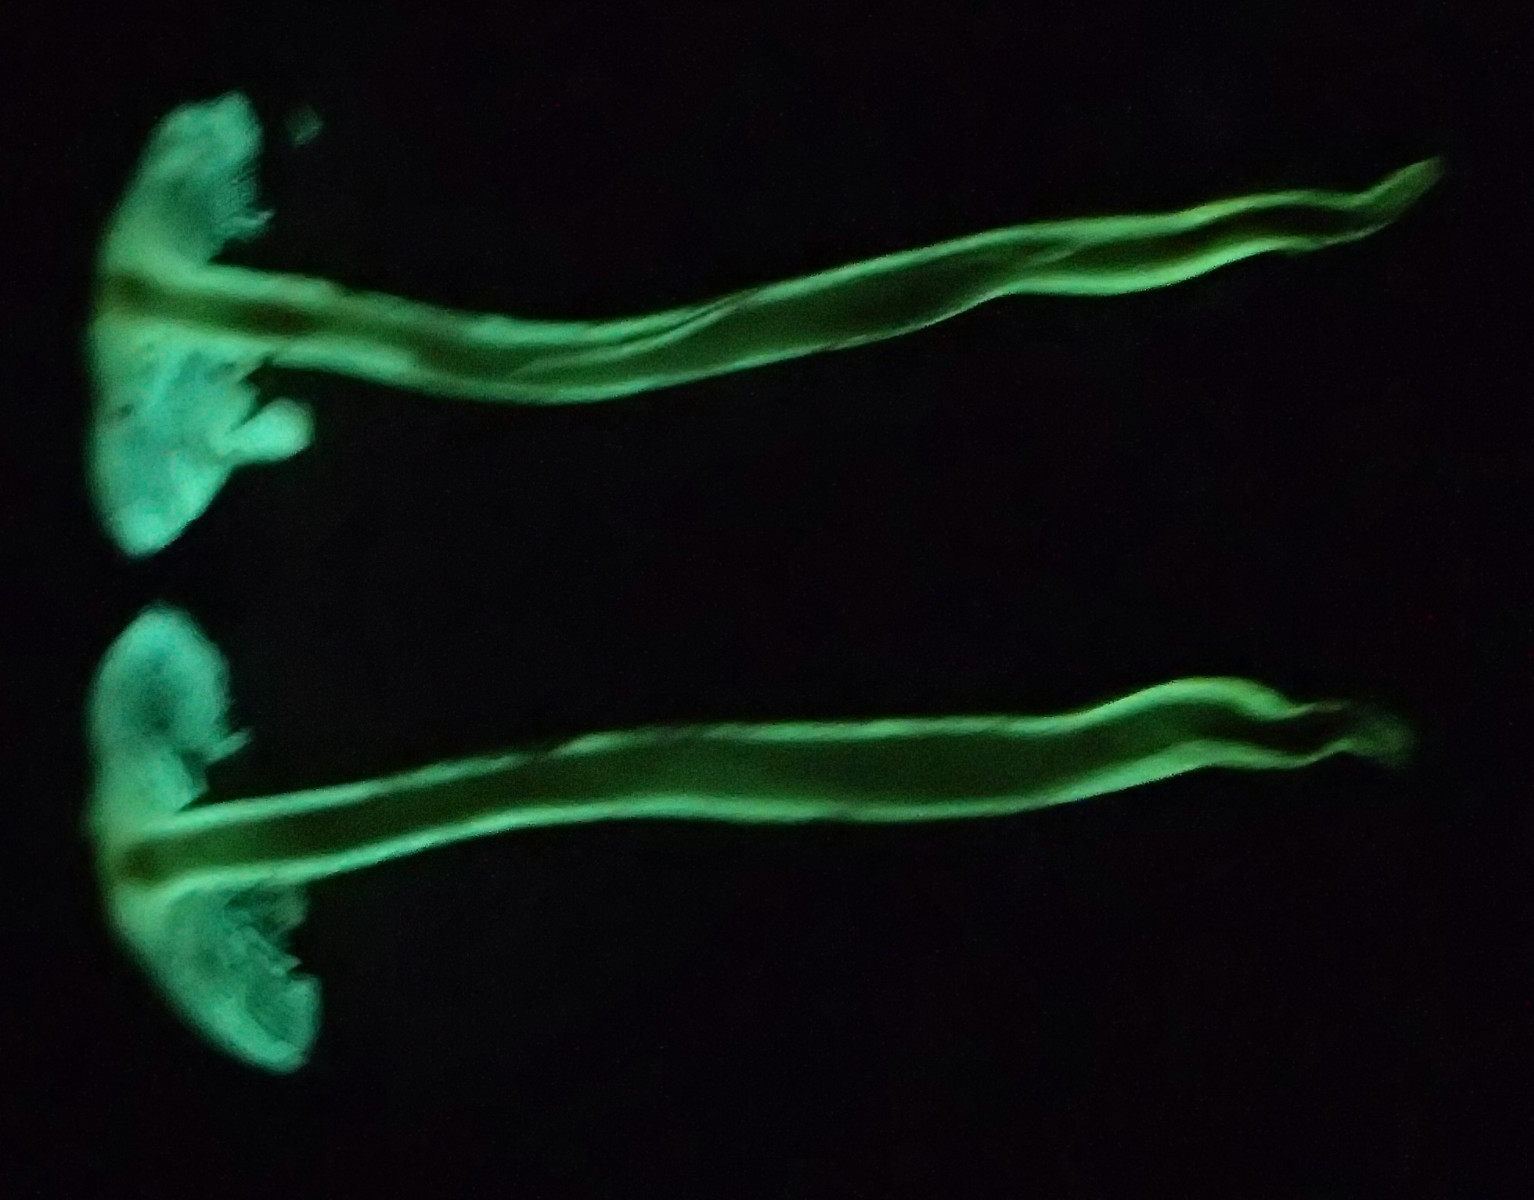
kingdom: Fungi
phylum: Basidiomycota
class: Agaricomycetes
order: Agaricales
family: Strophariaceae
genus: Hypholoma
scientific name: Hypholoma fasciculare
